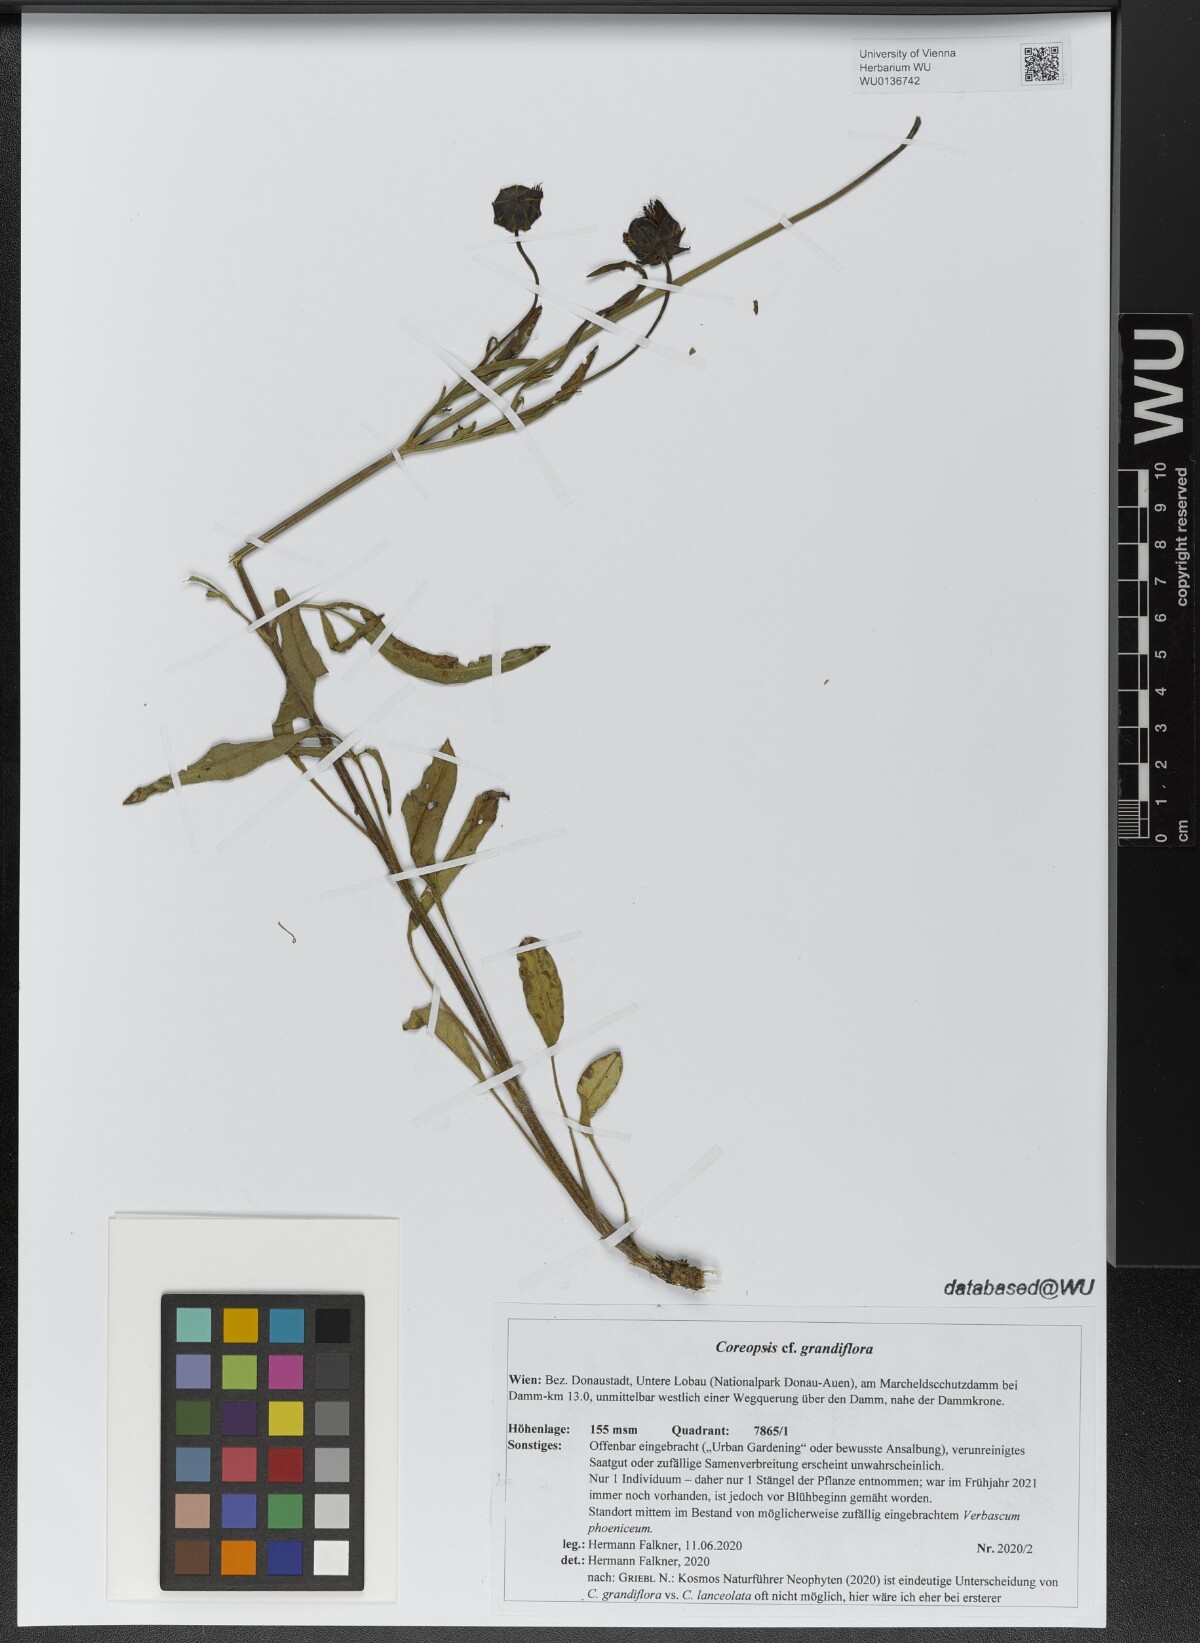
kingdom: Plantae
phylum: Tracheophyta
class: Magnoliopsida
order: Asterales
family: Asteraceae
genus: Coreopsis
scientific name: Coreopsis grandiflora
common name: Large-flowered tickseed
